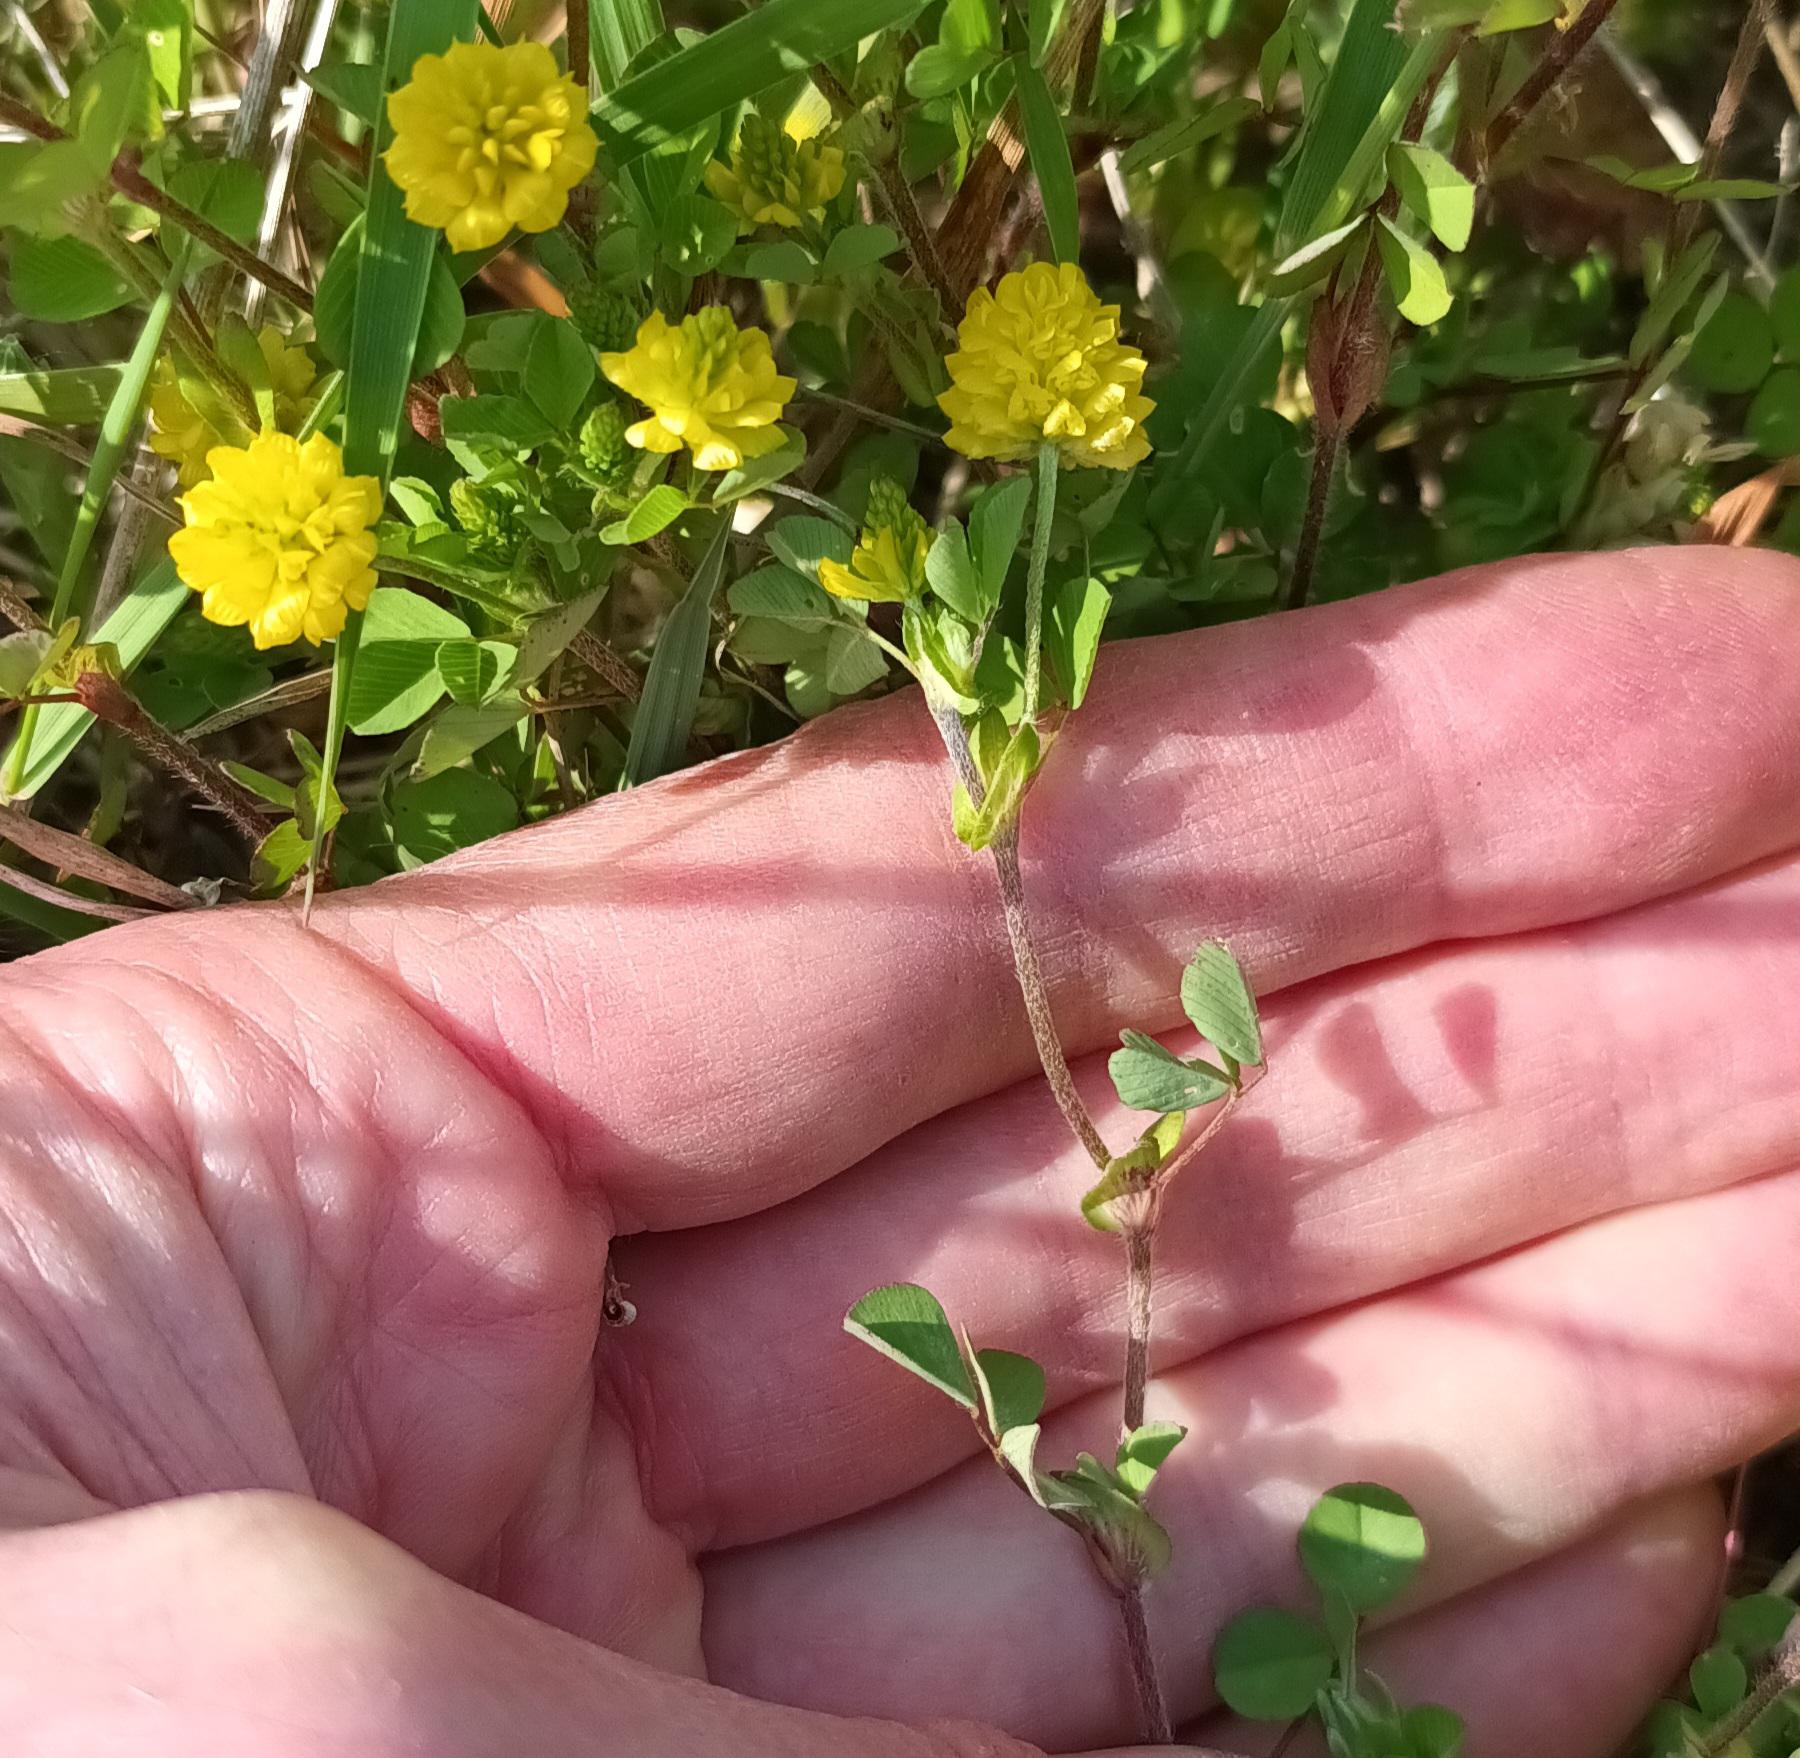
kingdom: Plantae
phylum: Tracheophyta
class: Magnoliopsida
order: Fabales
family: Fabaceae
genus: Trifolium
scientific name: Trifolium campestre
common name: Gul kløver
